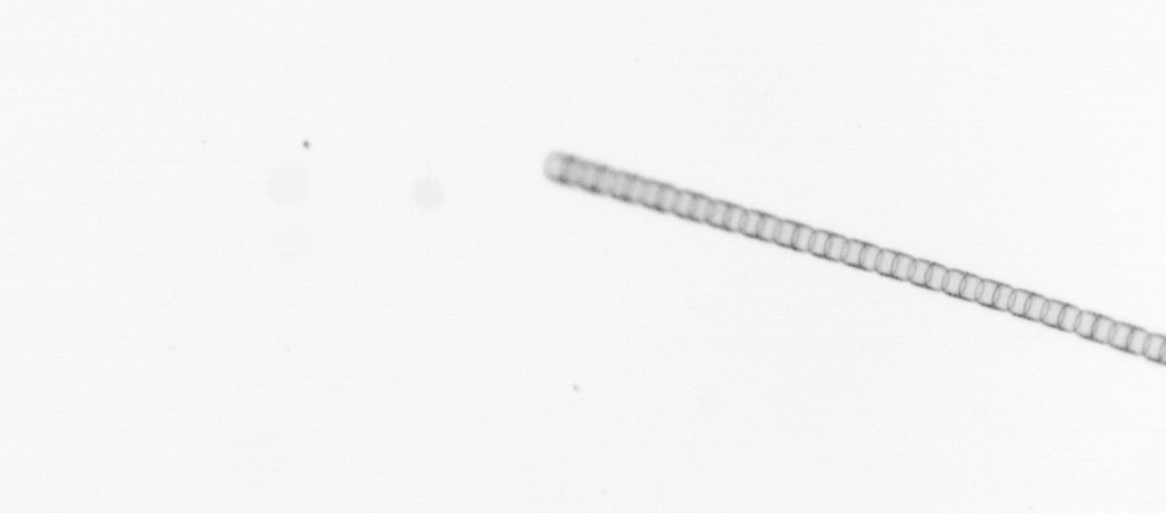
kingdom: Chromista
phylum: Ochrophyta
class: Bacillariophyceae
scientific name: Bacillariophyceae
